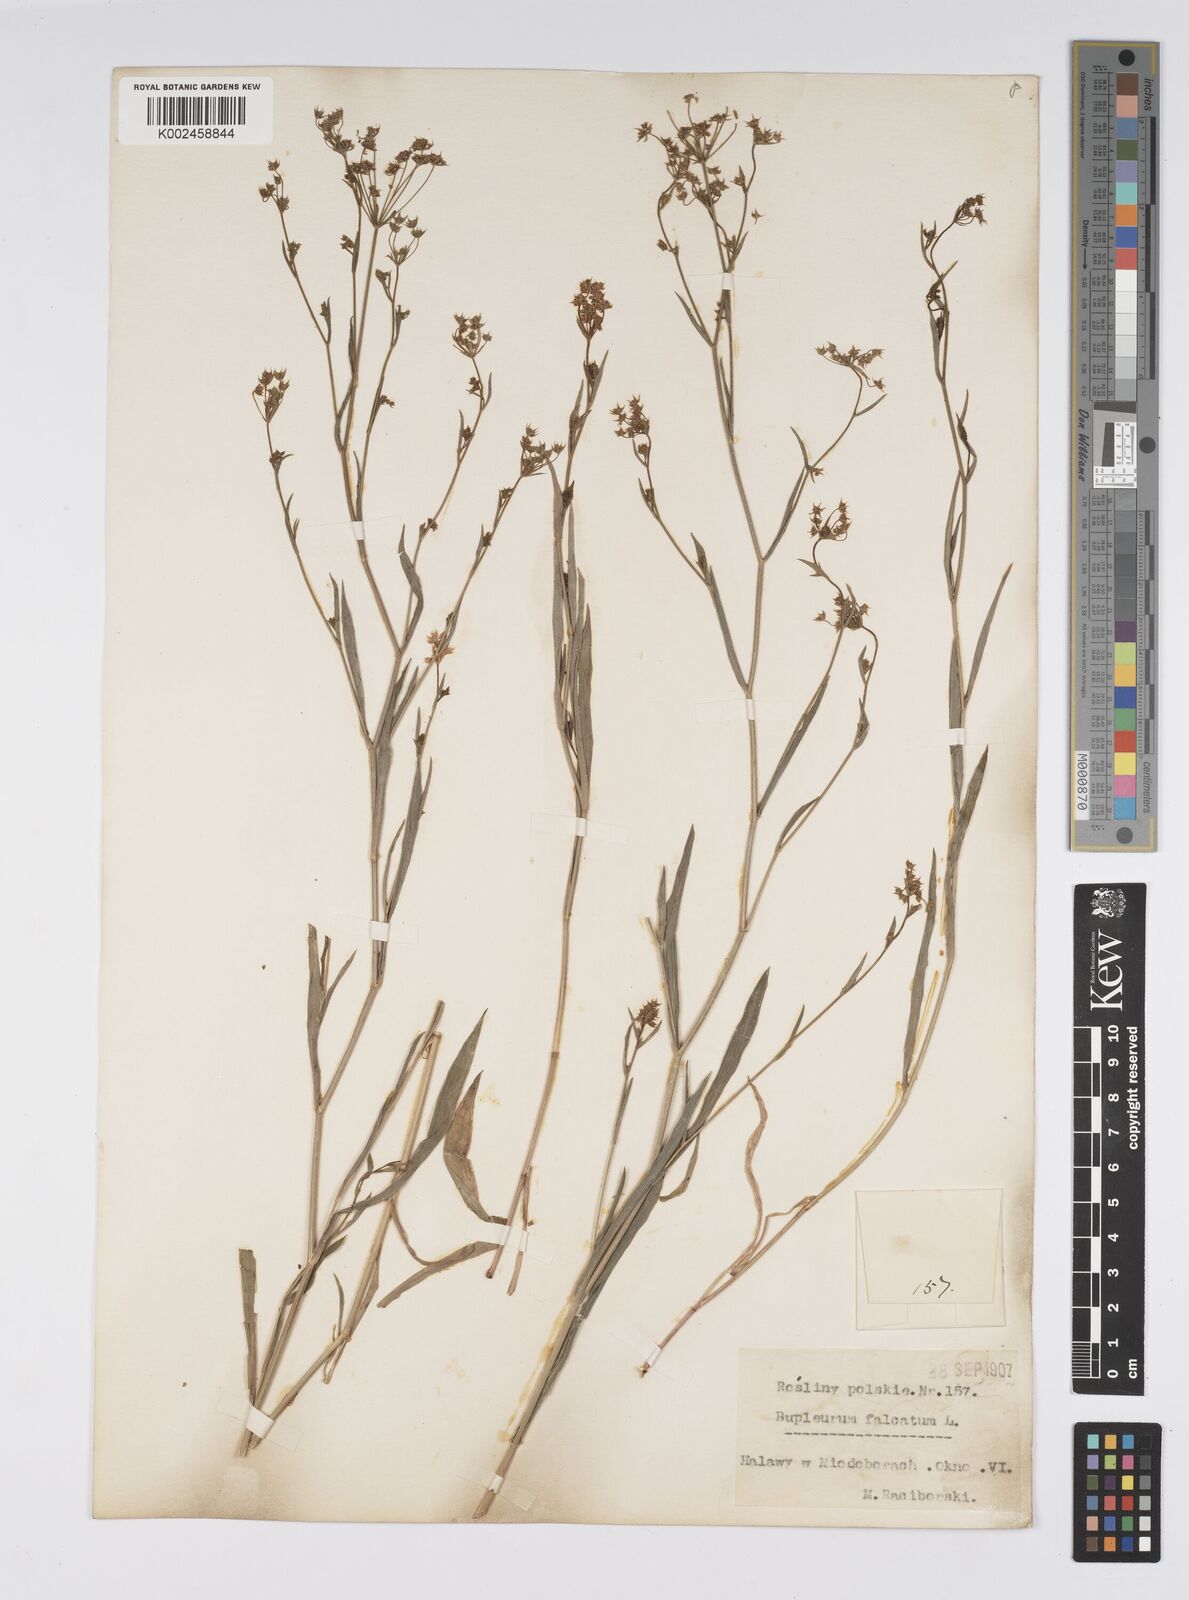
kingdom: Plantae
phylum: Tracheophyta
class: Magnoliopsida
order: Apiales
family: Apiaceae
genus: Bupleurum
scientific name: Bupleurum falcatum
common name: Sickle-leaved hare's-ear
